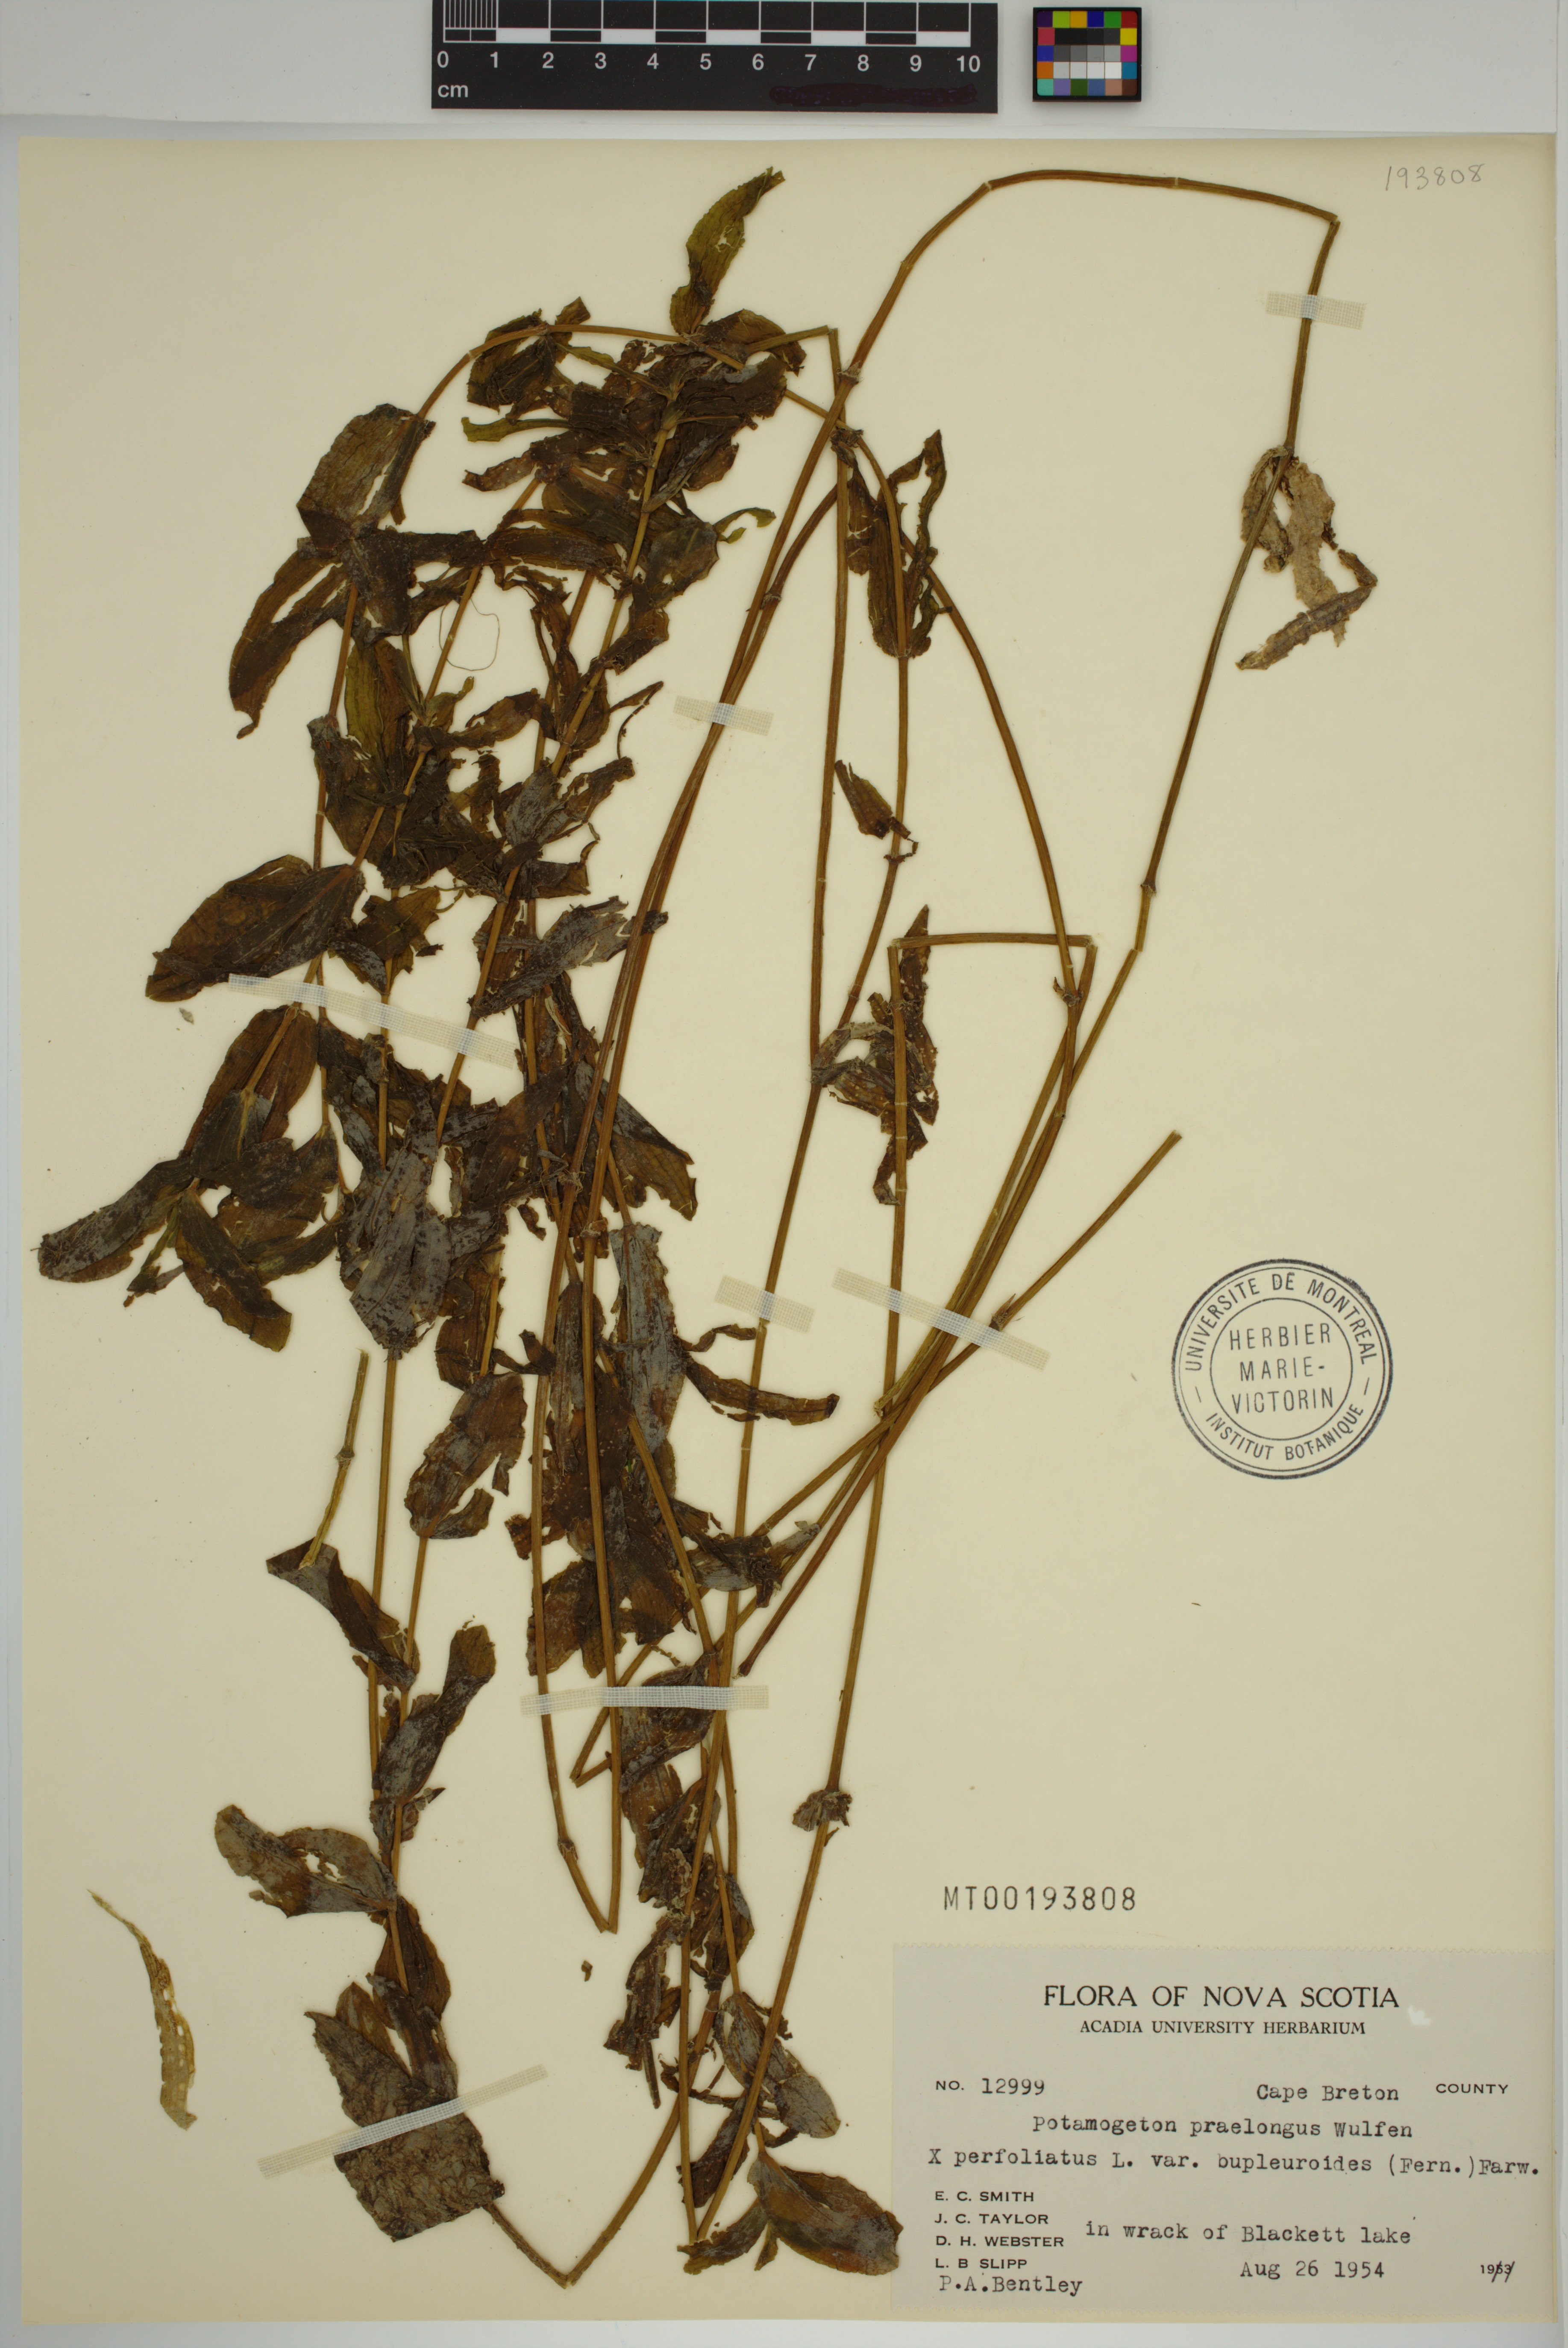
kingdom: Plantae
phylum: Tracheophyta
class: Liliopsida
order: Alismatales
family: Potamogetonaceae
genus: Potamogeton
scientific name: Potamogeton cognatus
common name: Kindred pondweed
